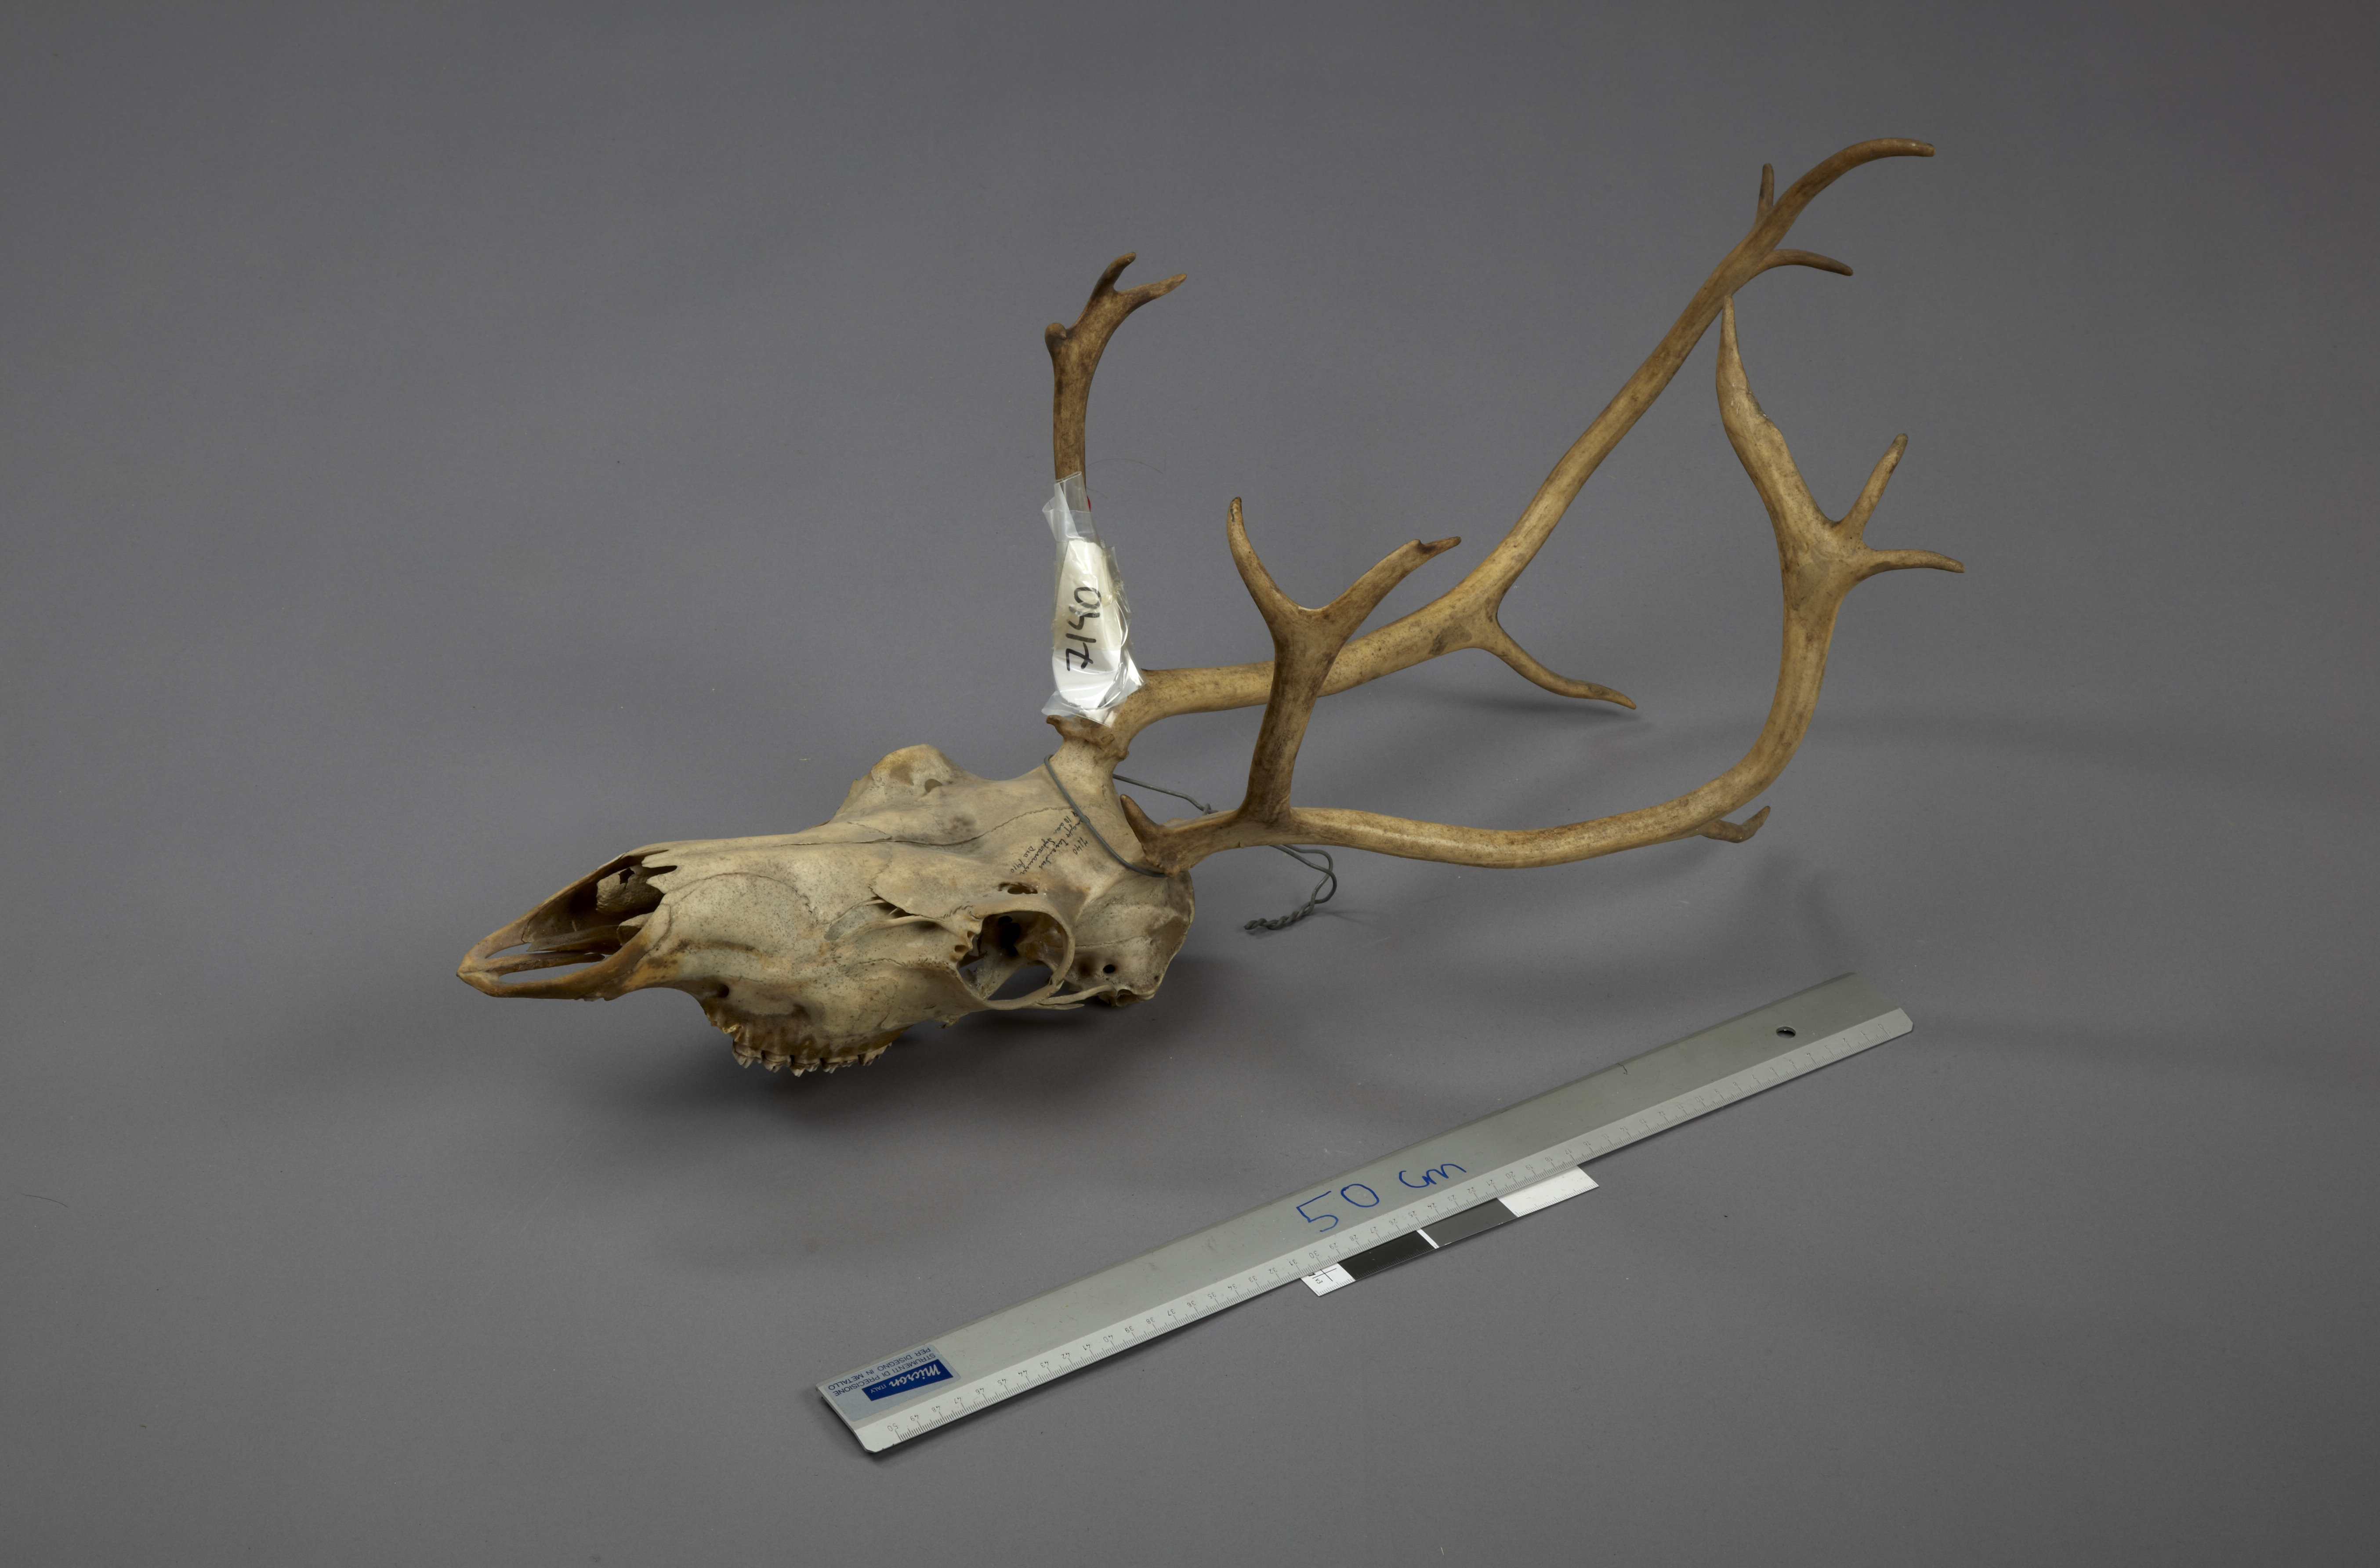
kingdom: Animalia
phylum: Chordata
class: Mammalia
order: Artiodactyla
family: Cervidae
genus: Rangifer
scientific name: Rangifer tarandus
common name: Reindeer
